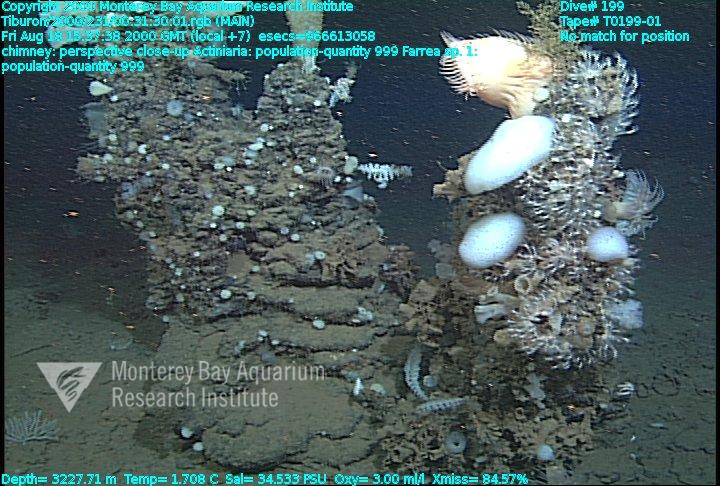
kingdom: Animalia
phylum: Porifera
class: Hexactinellida
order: Sceptrulophora
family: Farreidae
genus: Farrea
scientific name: Farrea truncata
